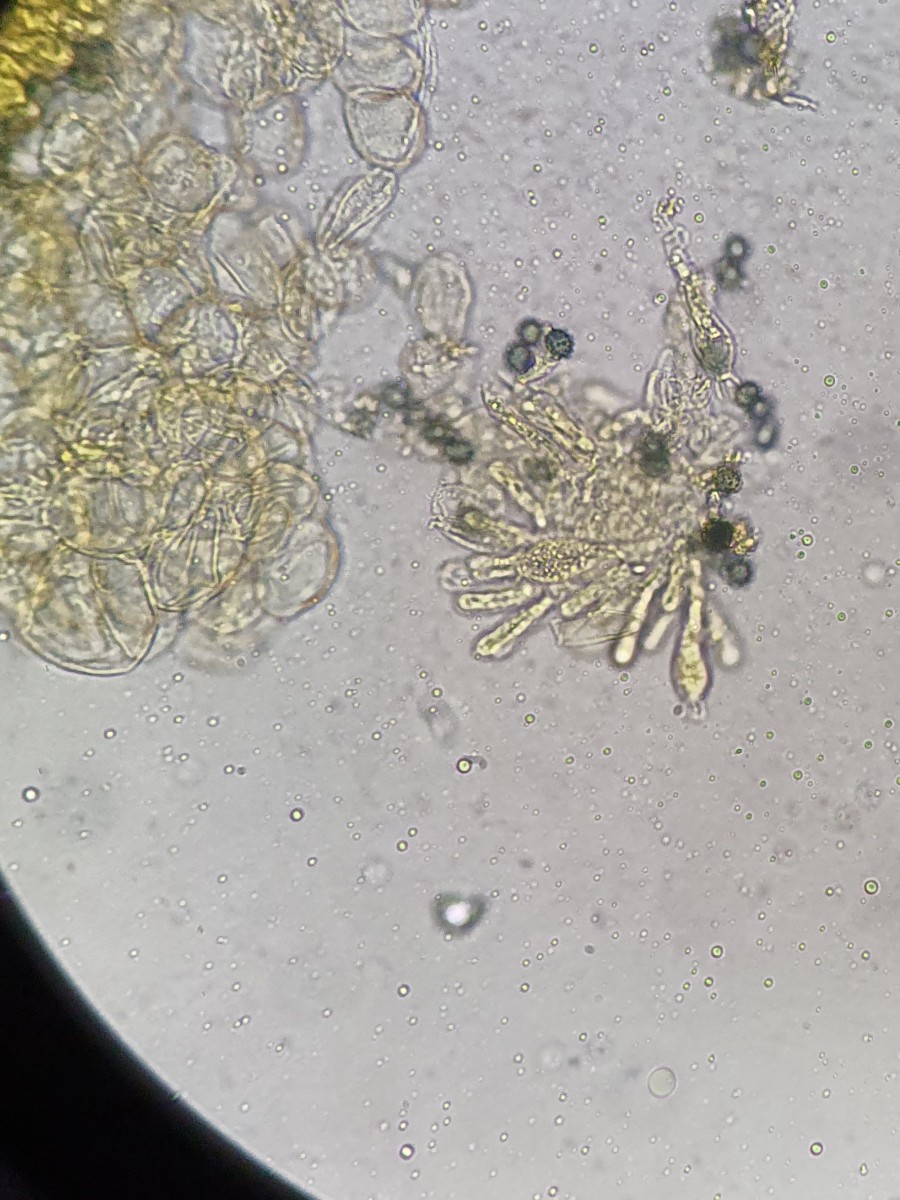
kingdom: Fungi
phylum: Basidiomycota
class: Agaricomycetes
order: Russulales
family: Russulaceae
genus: Russula
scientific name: Russula carpini
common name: avnbøg-skørhat
